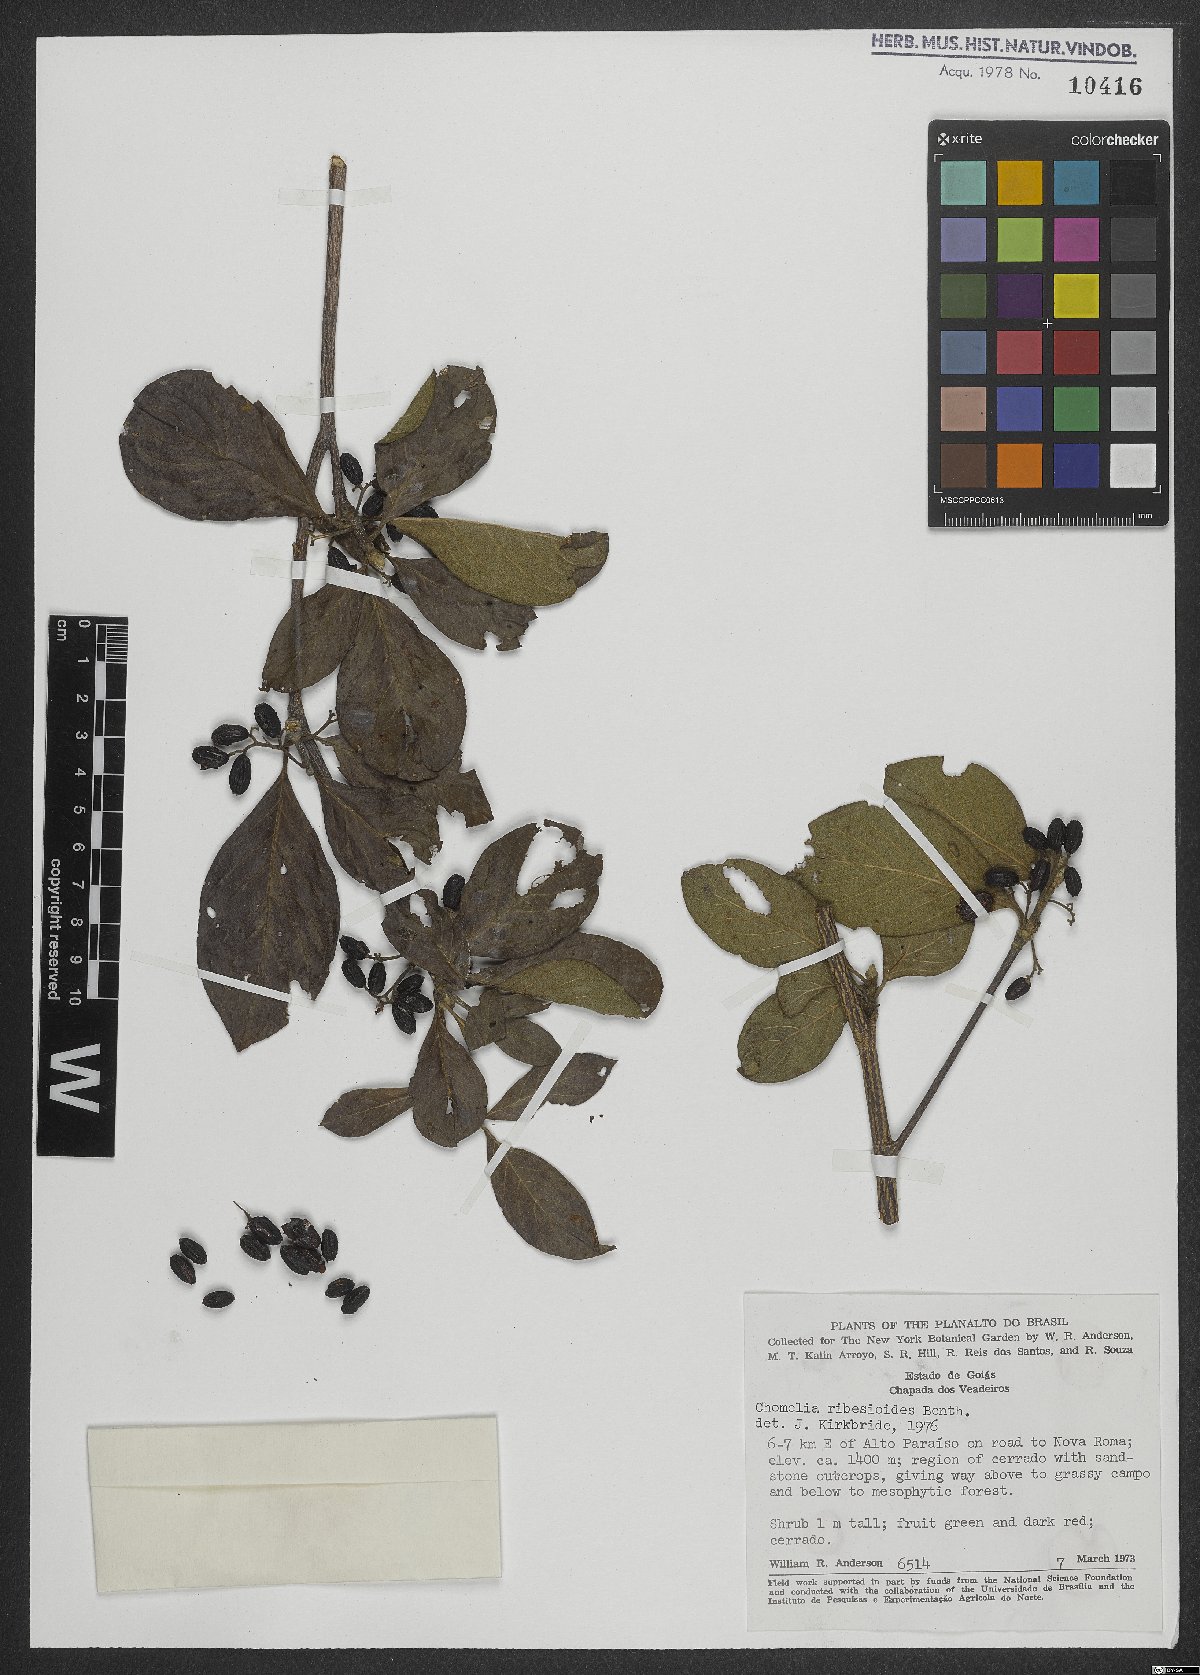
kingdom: Plantae
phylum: Tracheophyta
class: Magnoliopsida
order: Gentianales
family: Rubiaceae
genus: Chomelia
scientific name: Chomelia ribesioides
